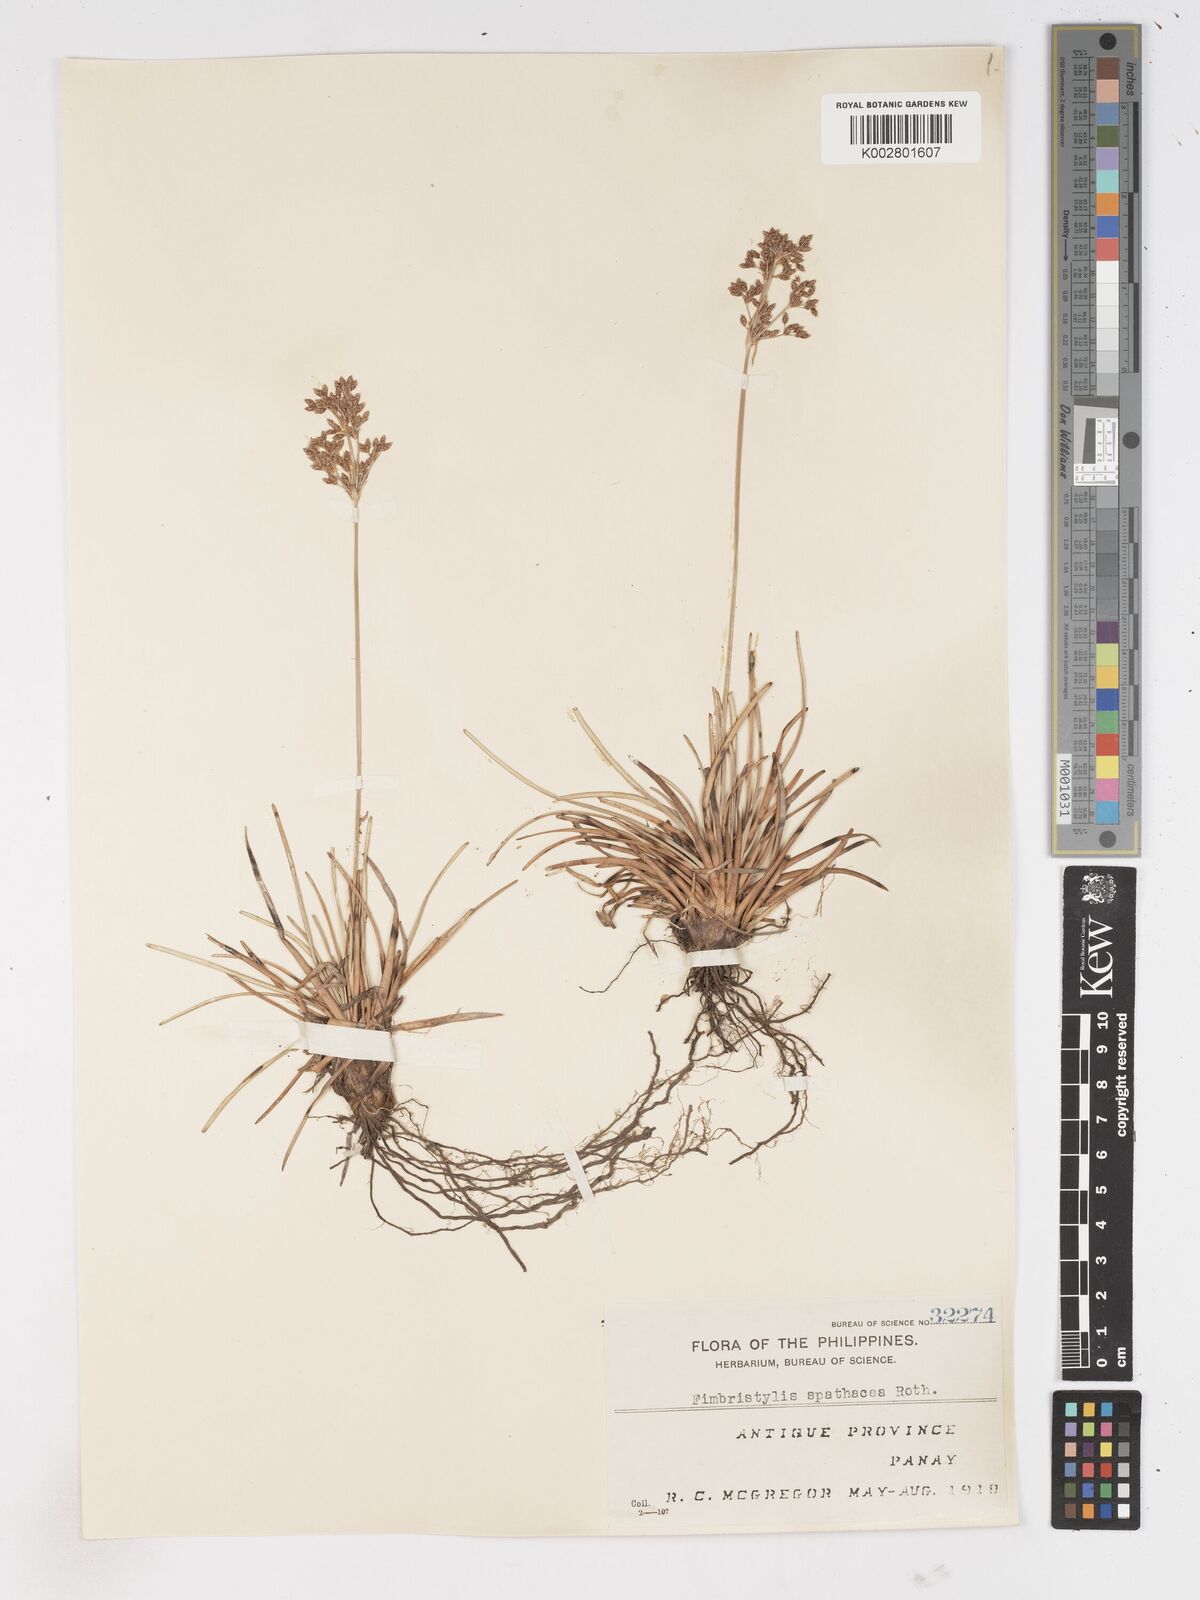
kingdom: Plantae
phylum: Tracheophyta
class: Liliopsida
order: Poales
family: Cyperaceae
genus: Fimbristylis
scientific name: Fimbristylis cymosa
